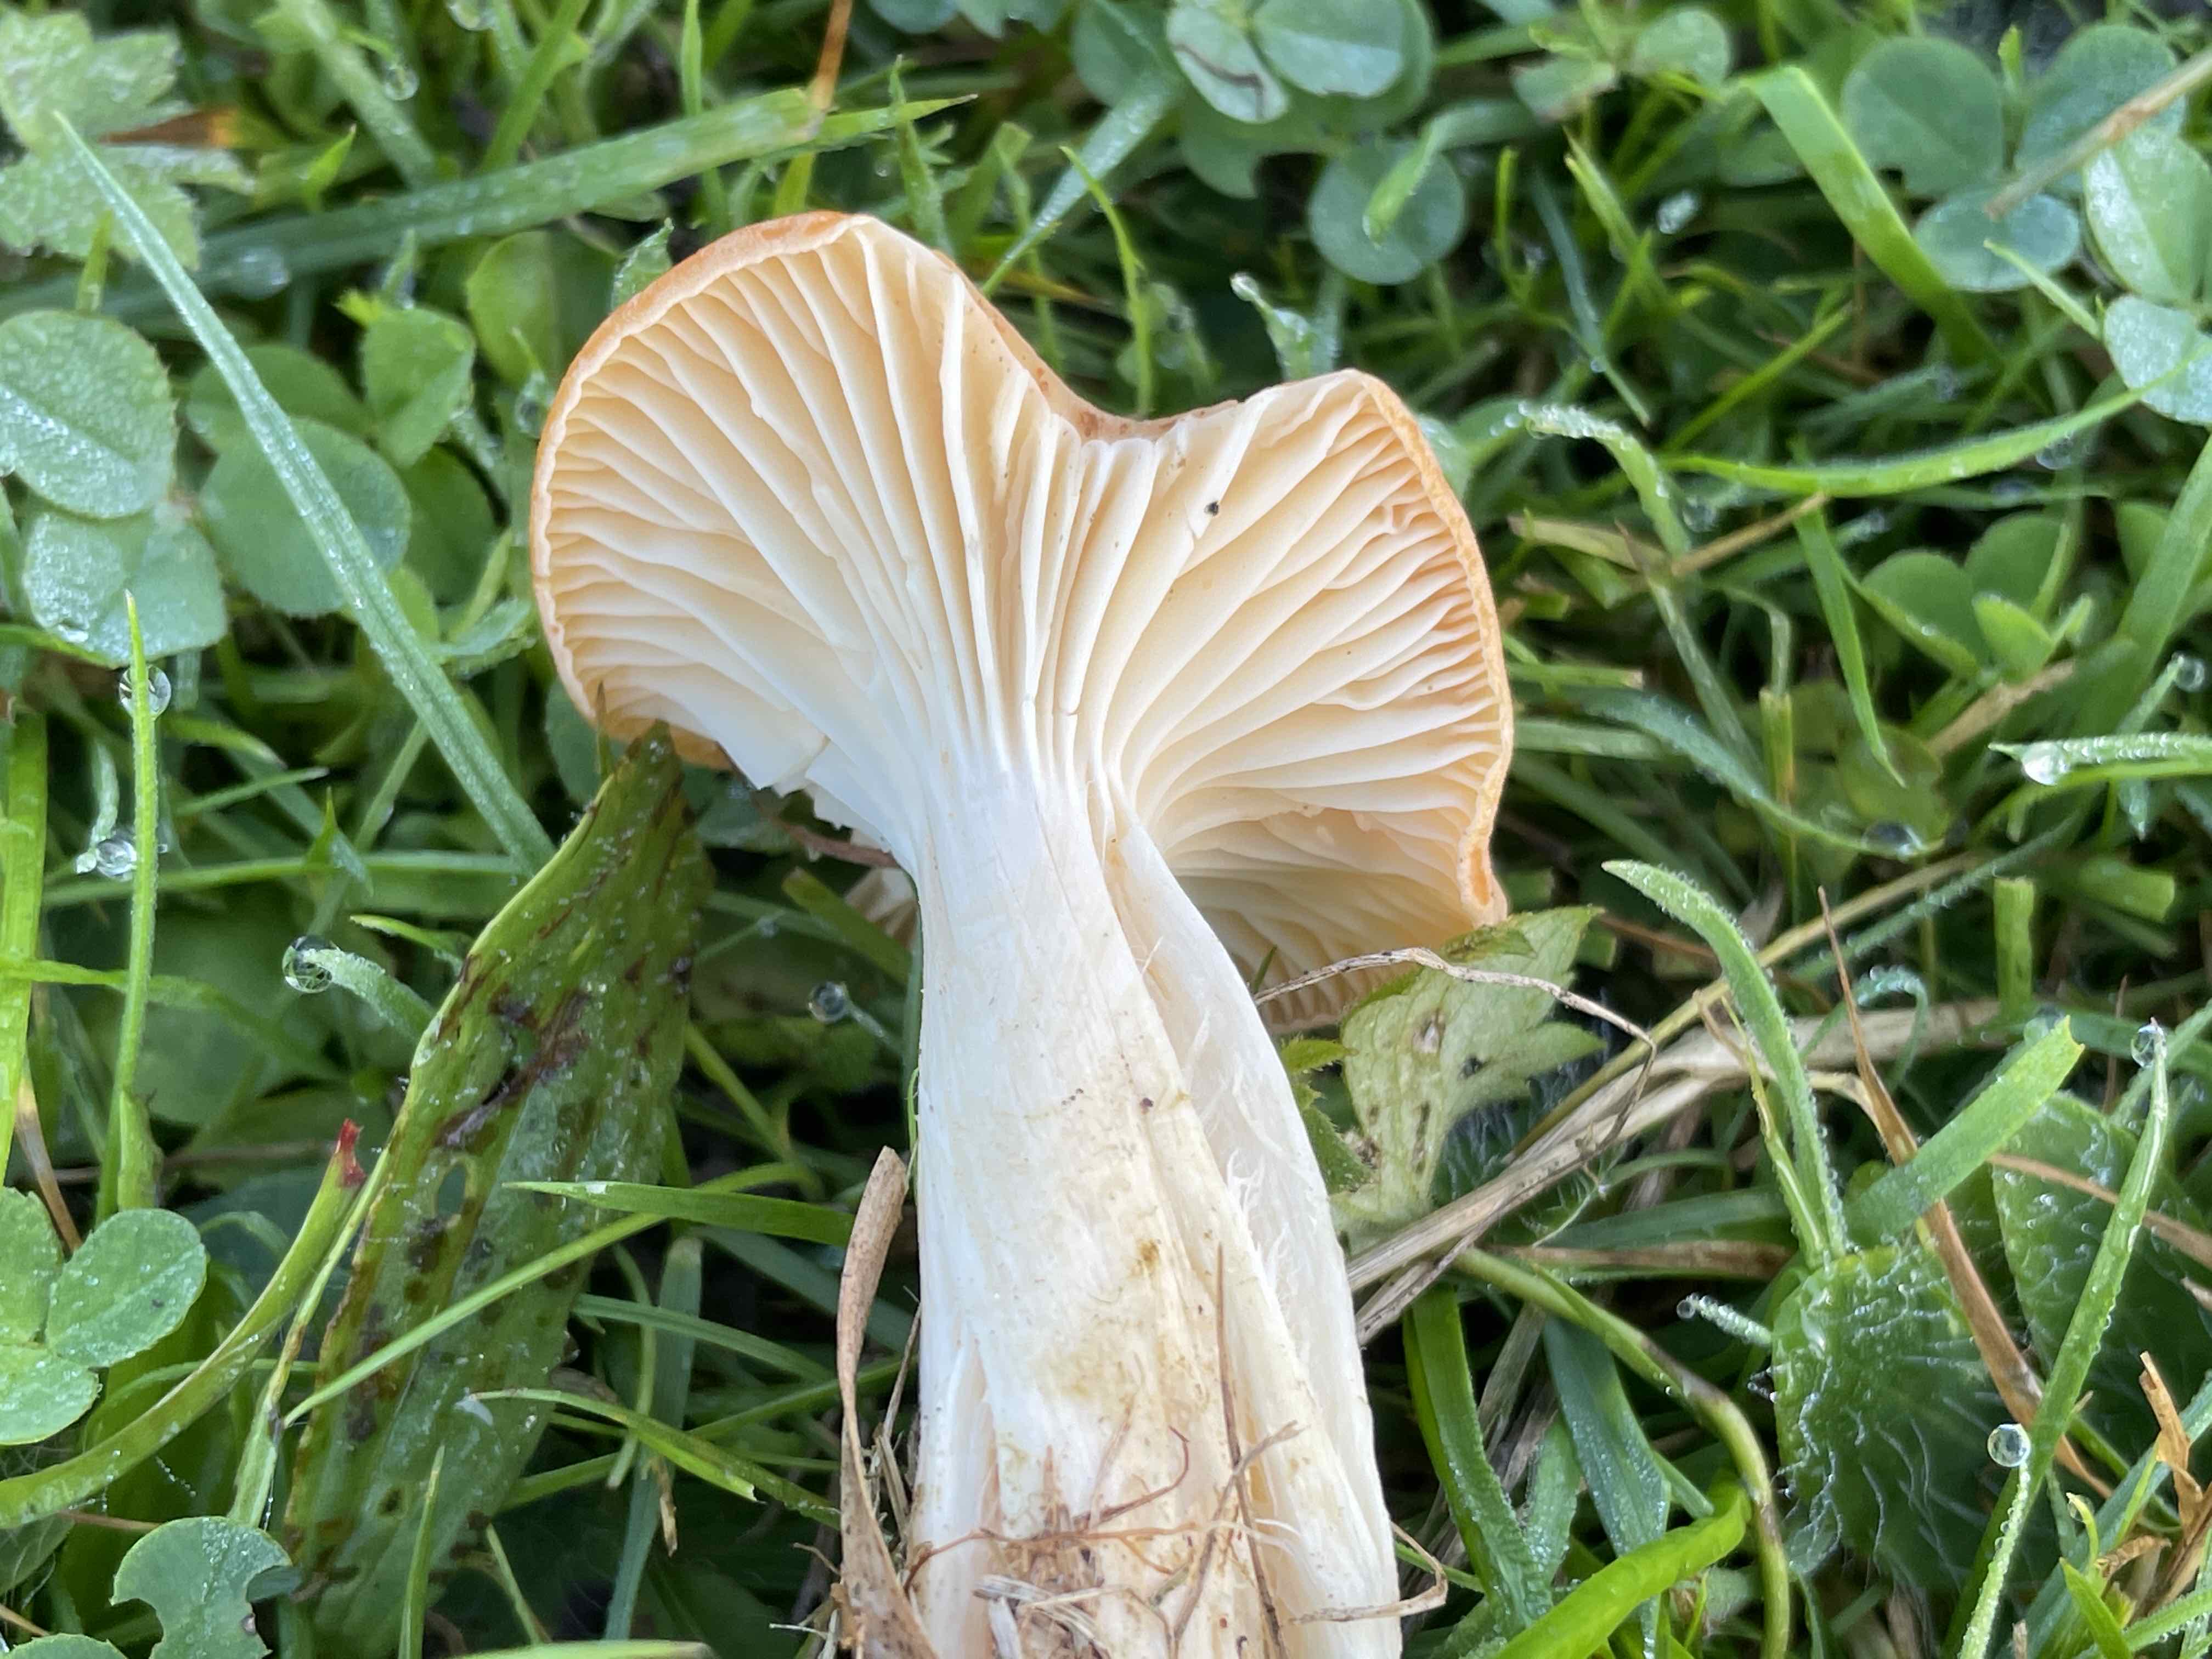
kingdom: Fungi
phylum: Basidiomycota
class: Agaricomycetes
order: Agaricales
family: Hygrophoraceae
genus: Cuphophyllus
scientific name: Cuphophyllus pratensis
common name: eng-vokshat
